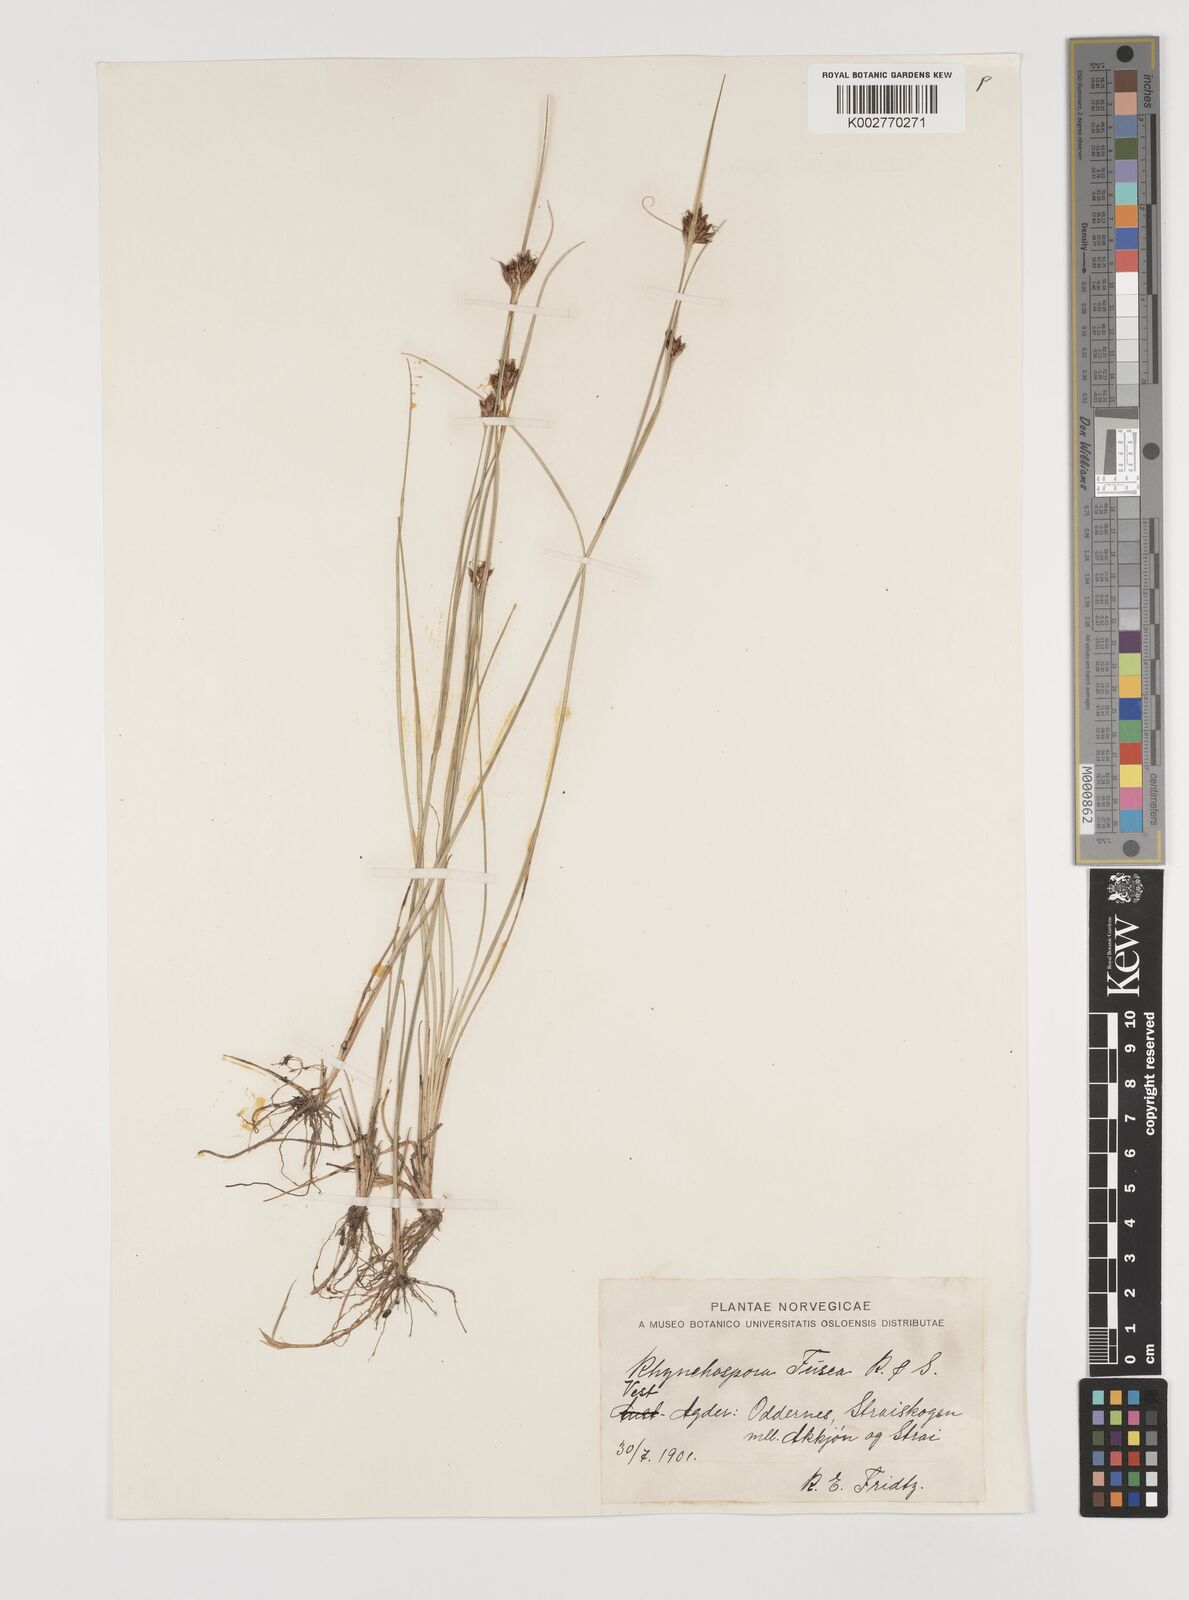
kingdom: Plantae
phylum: Tracheophyta
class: Liliopsida
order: Poales
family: Cyperaceae
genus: Rhynchospora
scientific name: Rhynchospora fusca
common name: Brown beak-sedge
